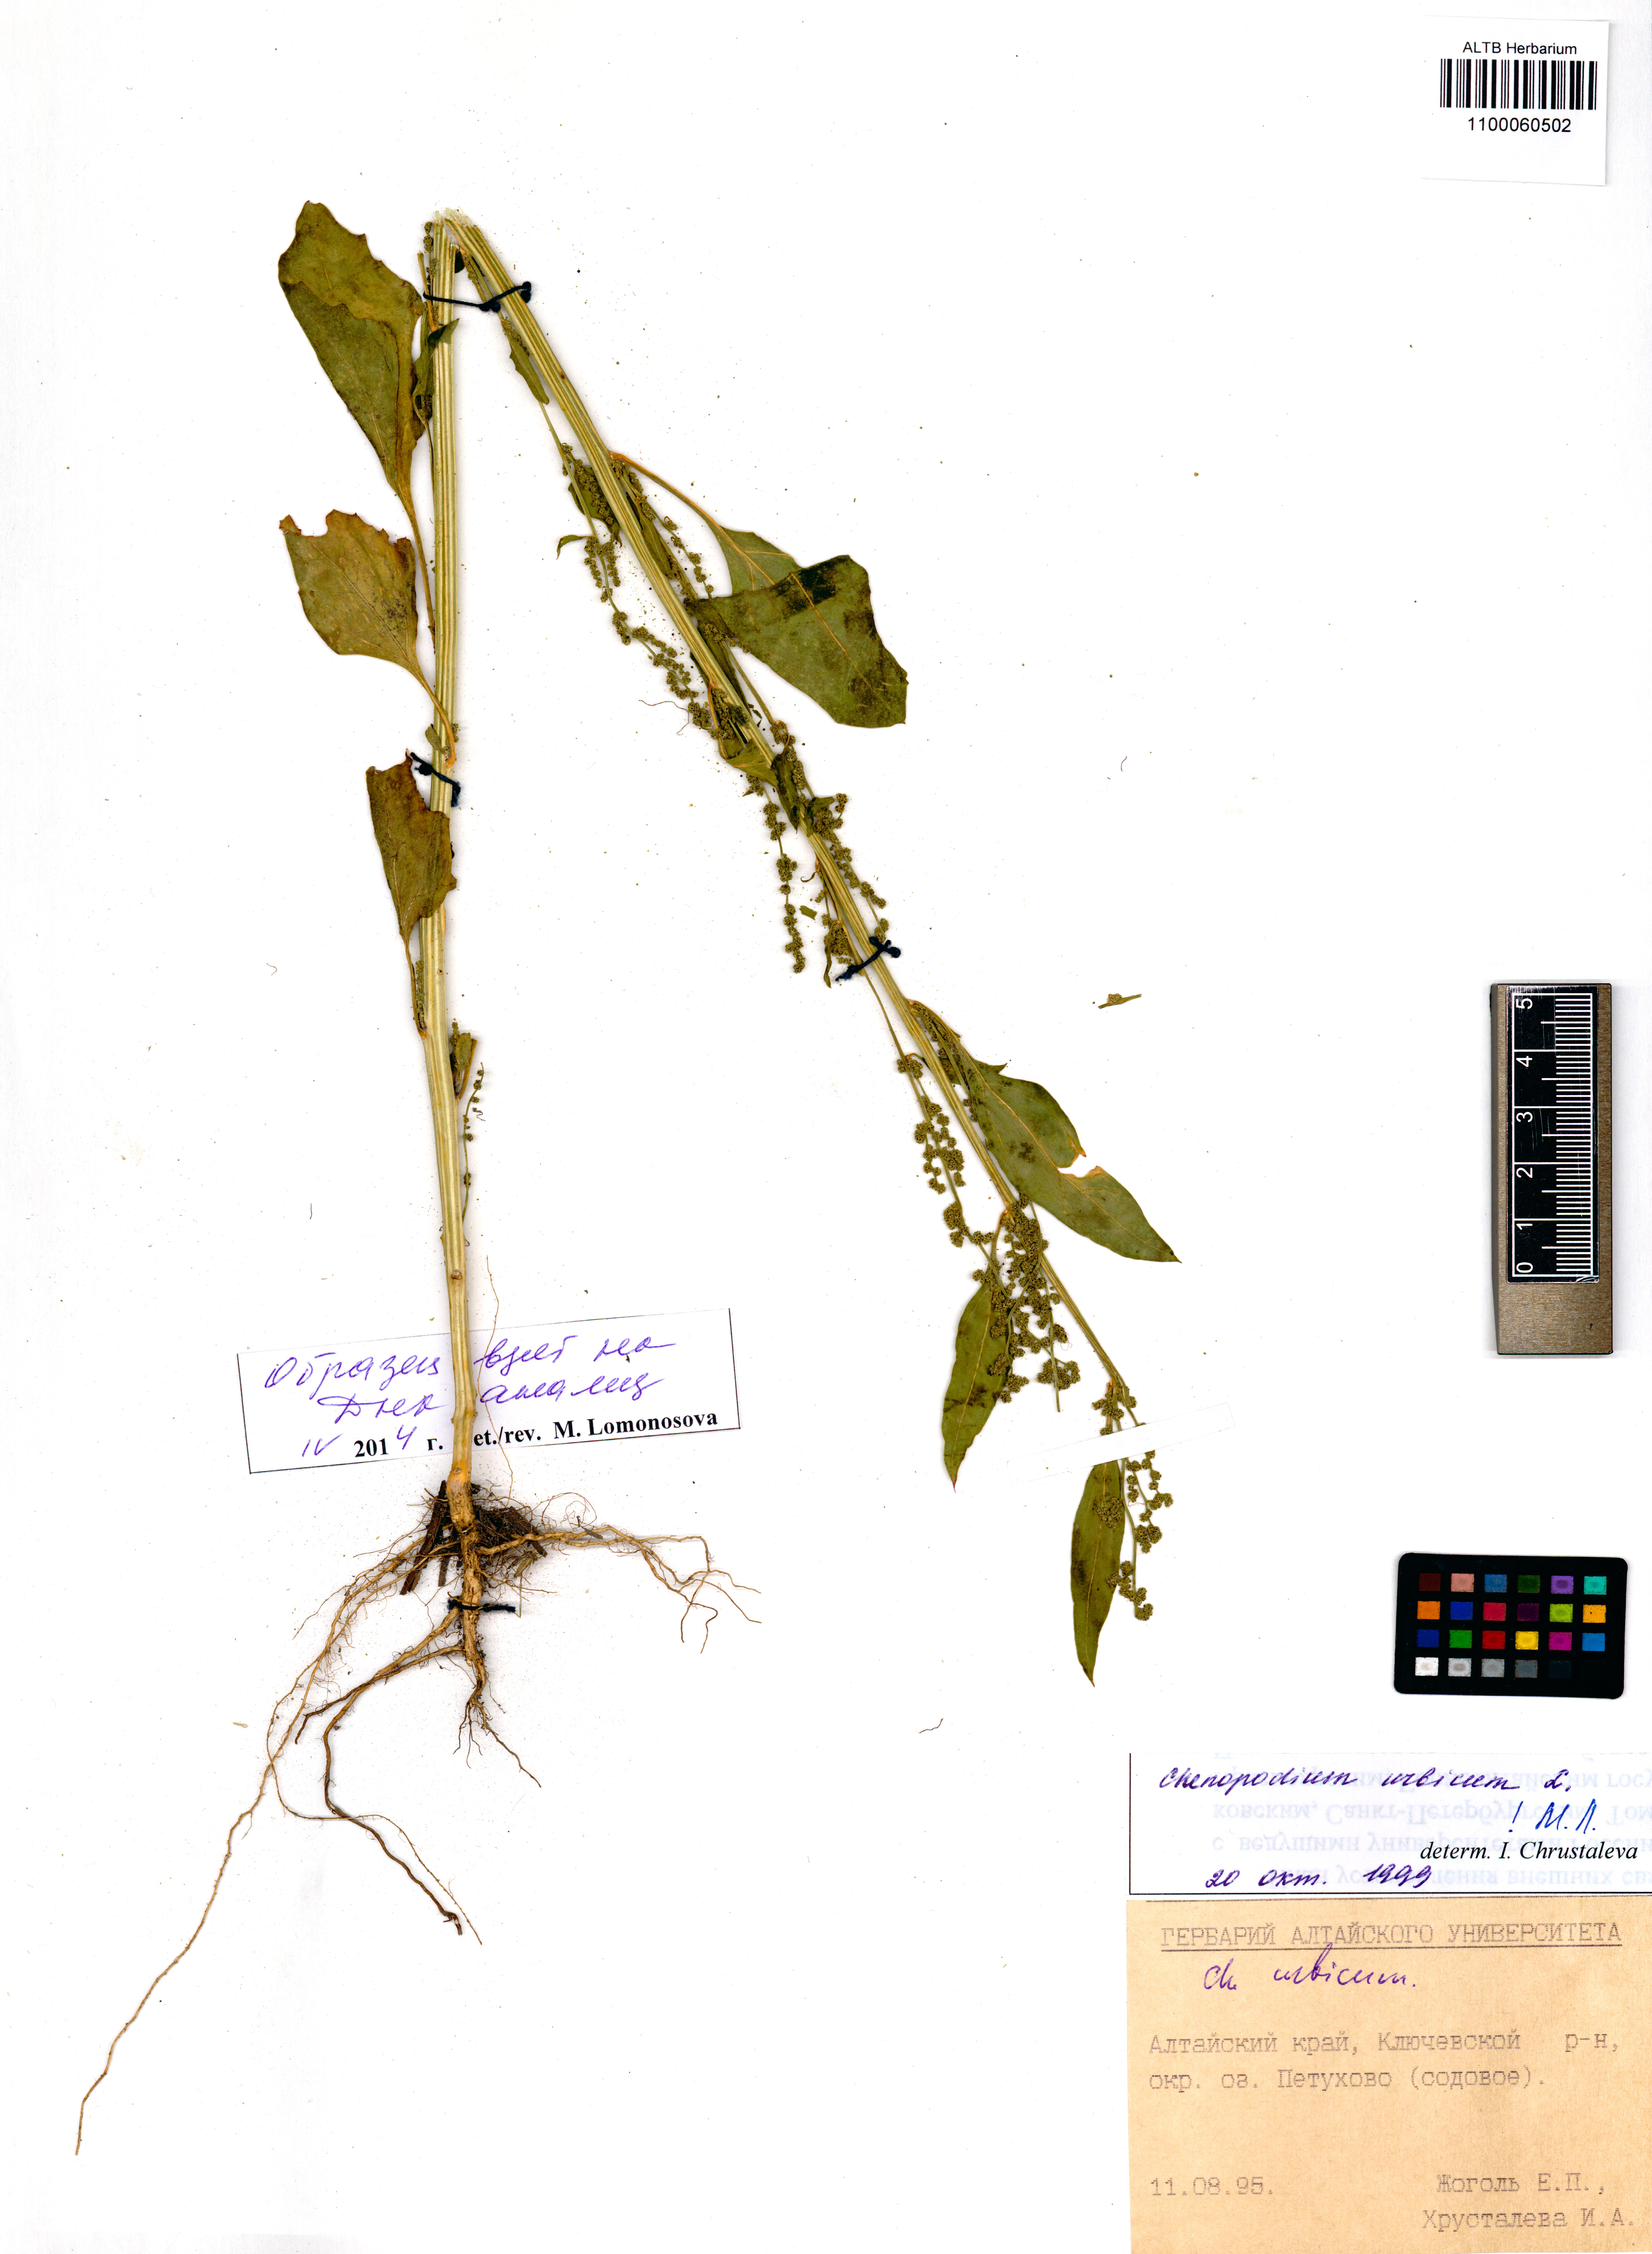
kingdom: Plantae
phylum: Tracheophyta
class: Magnoliopsida
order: Caryophyllales
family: Amaranthaceae
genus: Oxybasis
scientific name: Oxybasis urbica
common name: City goosefoot
